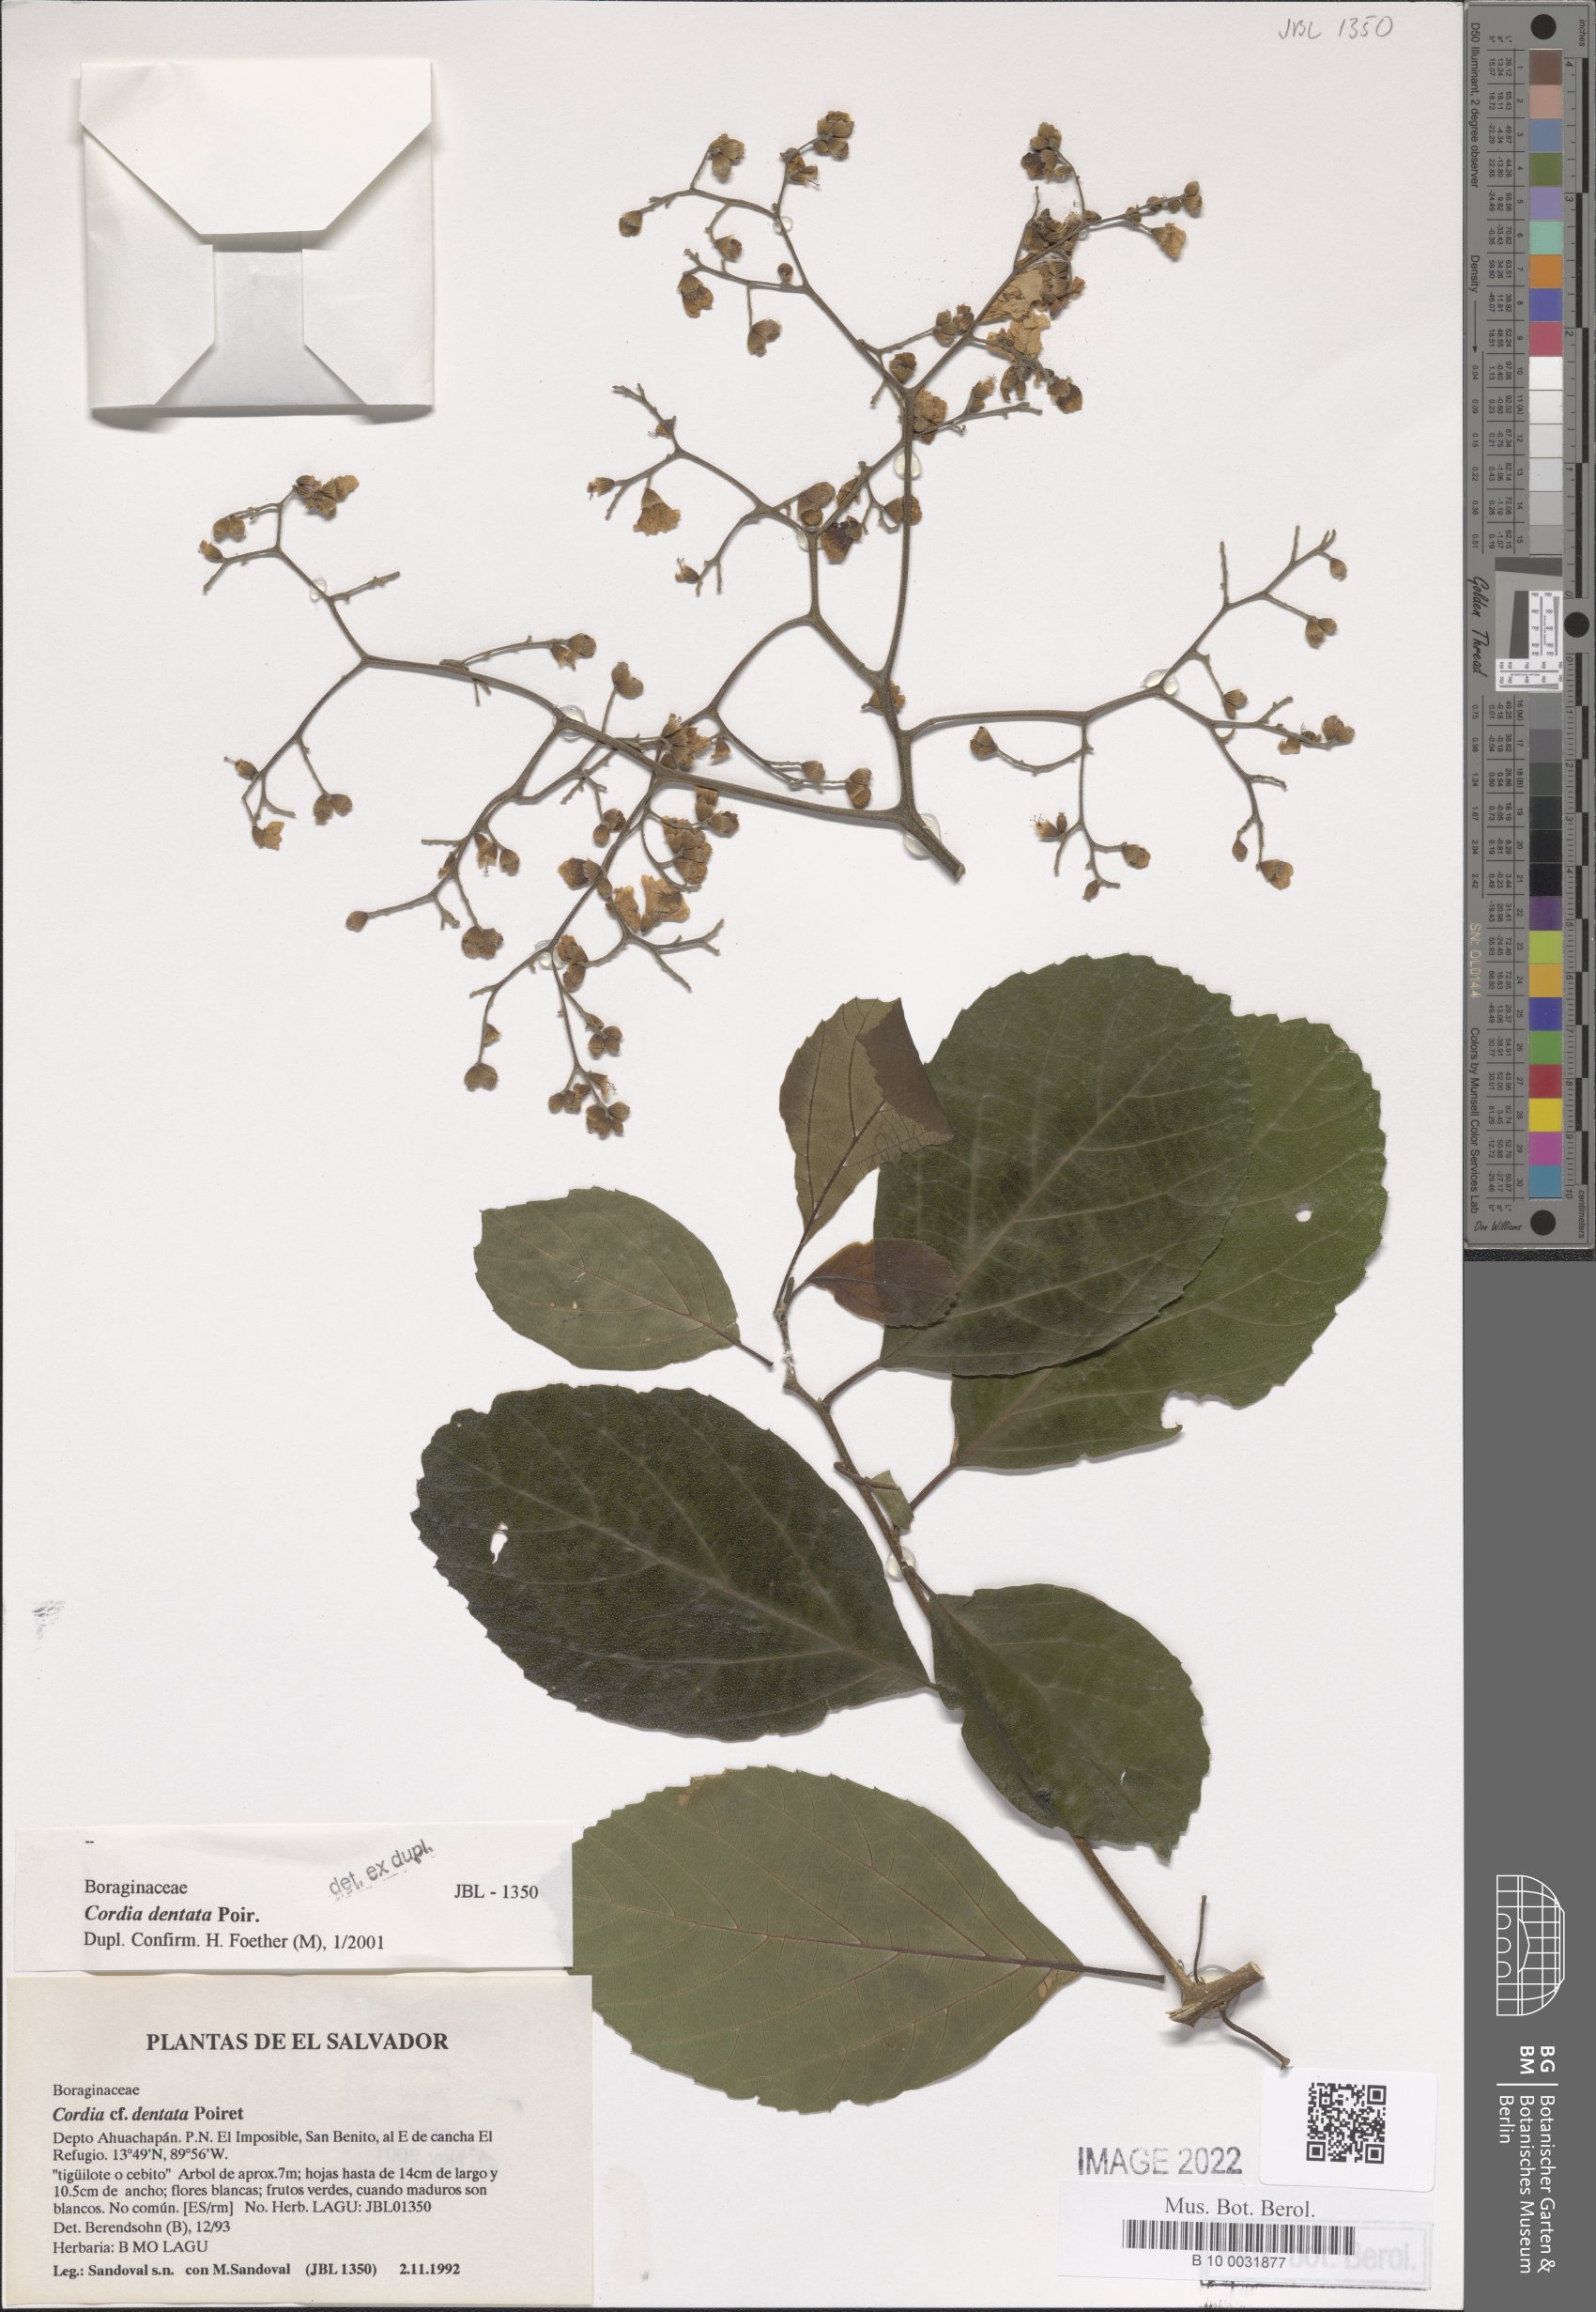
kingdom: Plantae
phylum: Tracheophyta
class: Magnoliopsida
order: Boraginales
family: Cordiaceae
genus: Cordia
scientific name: Cordia dentata
